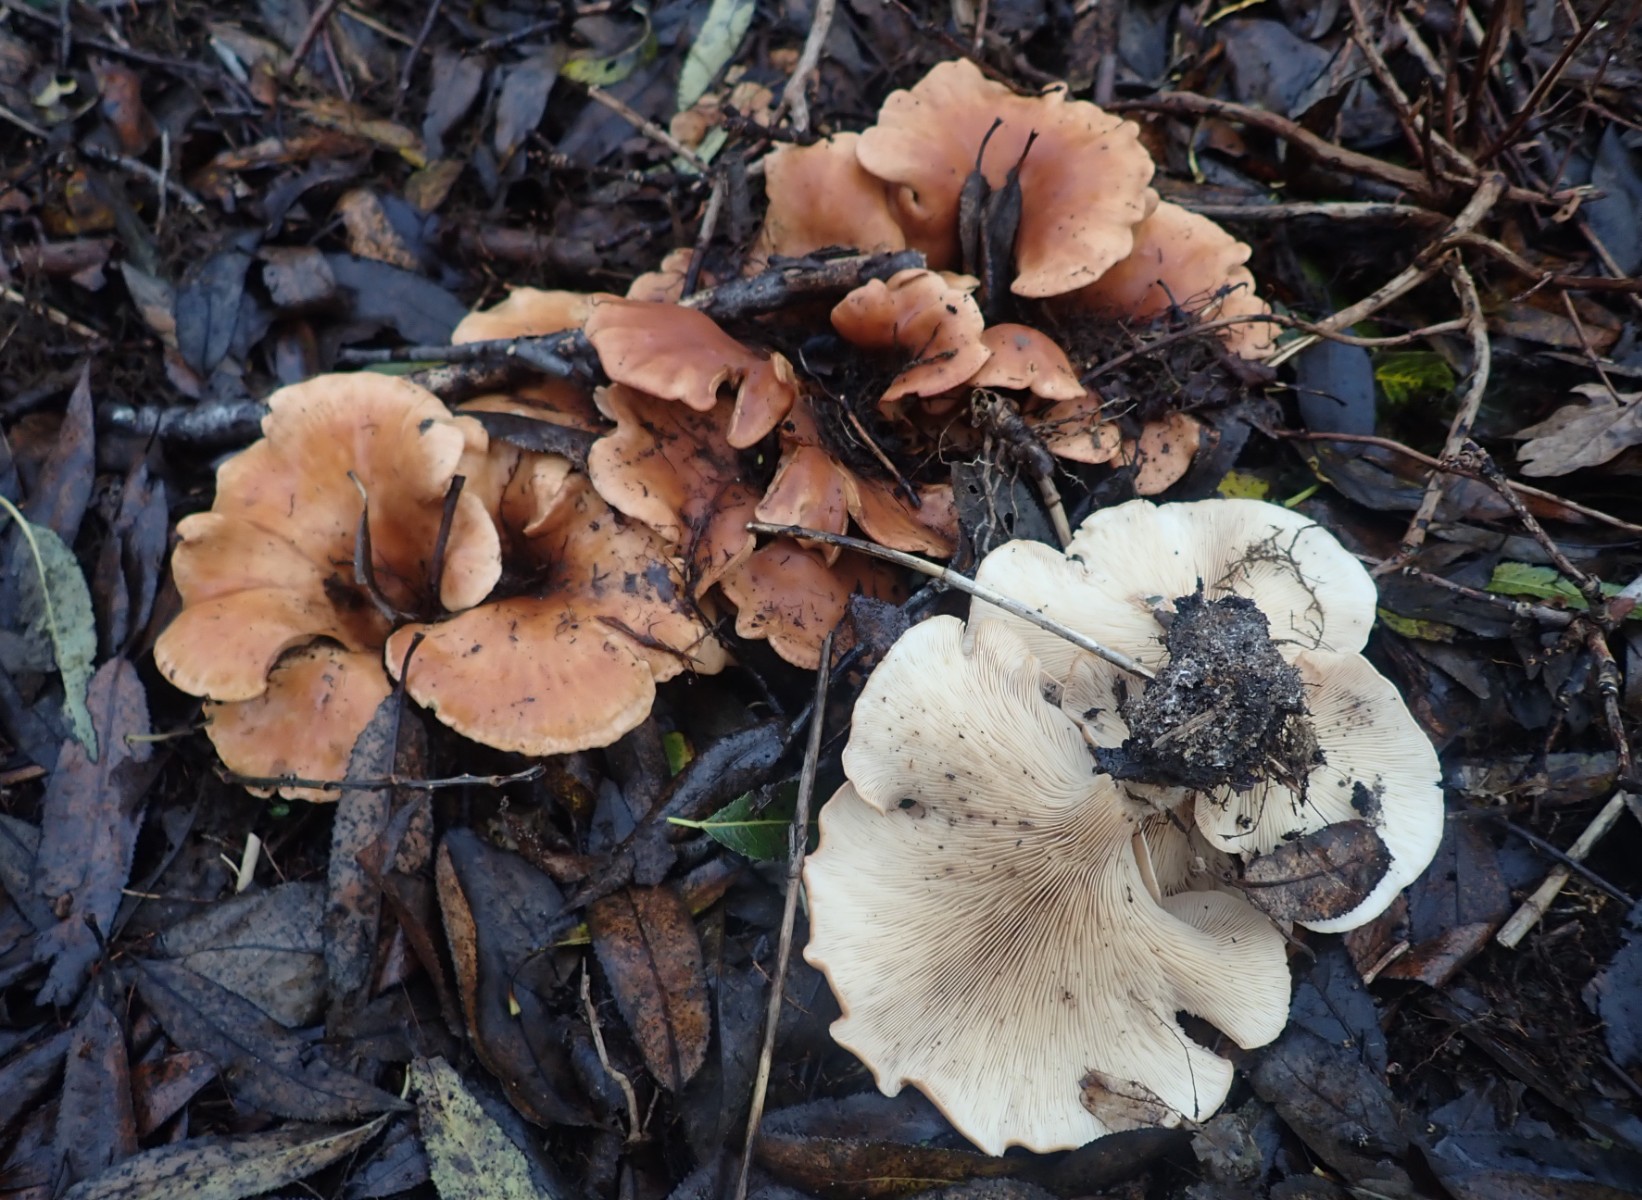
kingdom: Fungi
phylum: Basidiomycota
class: Agaricomycetes
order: Agaricales
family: Tricholomataceae
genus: Paralepista
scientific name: Paralepista flaccida
